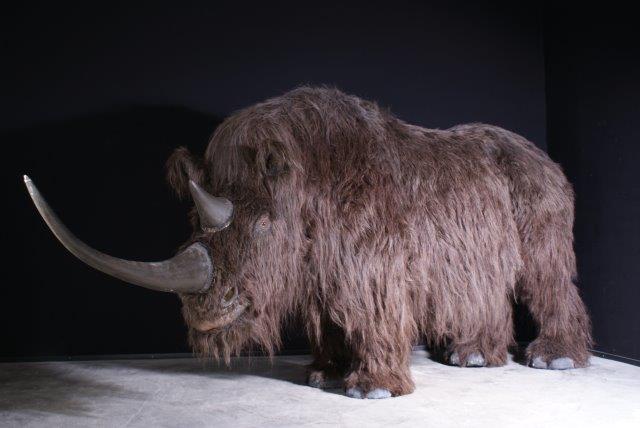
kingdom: Animalia
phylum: Chordata
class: Mammalia
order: Perissodactyla
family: Rhinocerotidae
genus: Coelodonta
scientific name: Coelodonta antiquitatis
